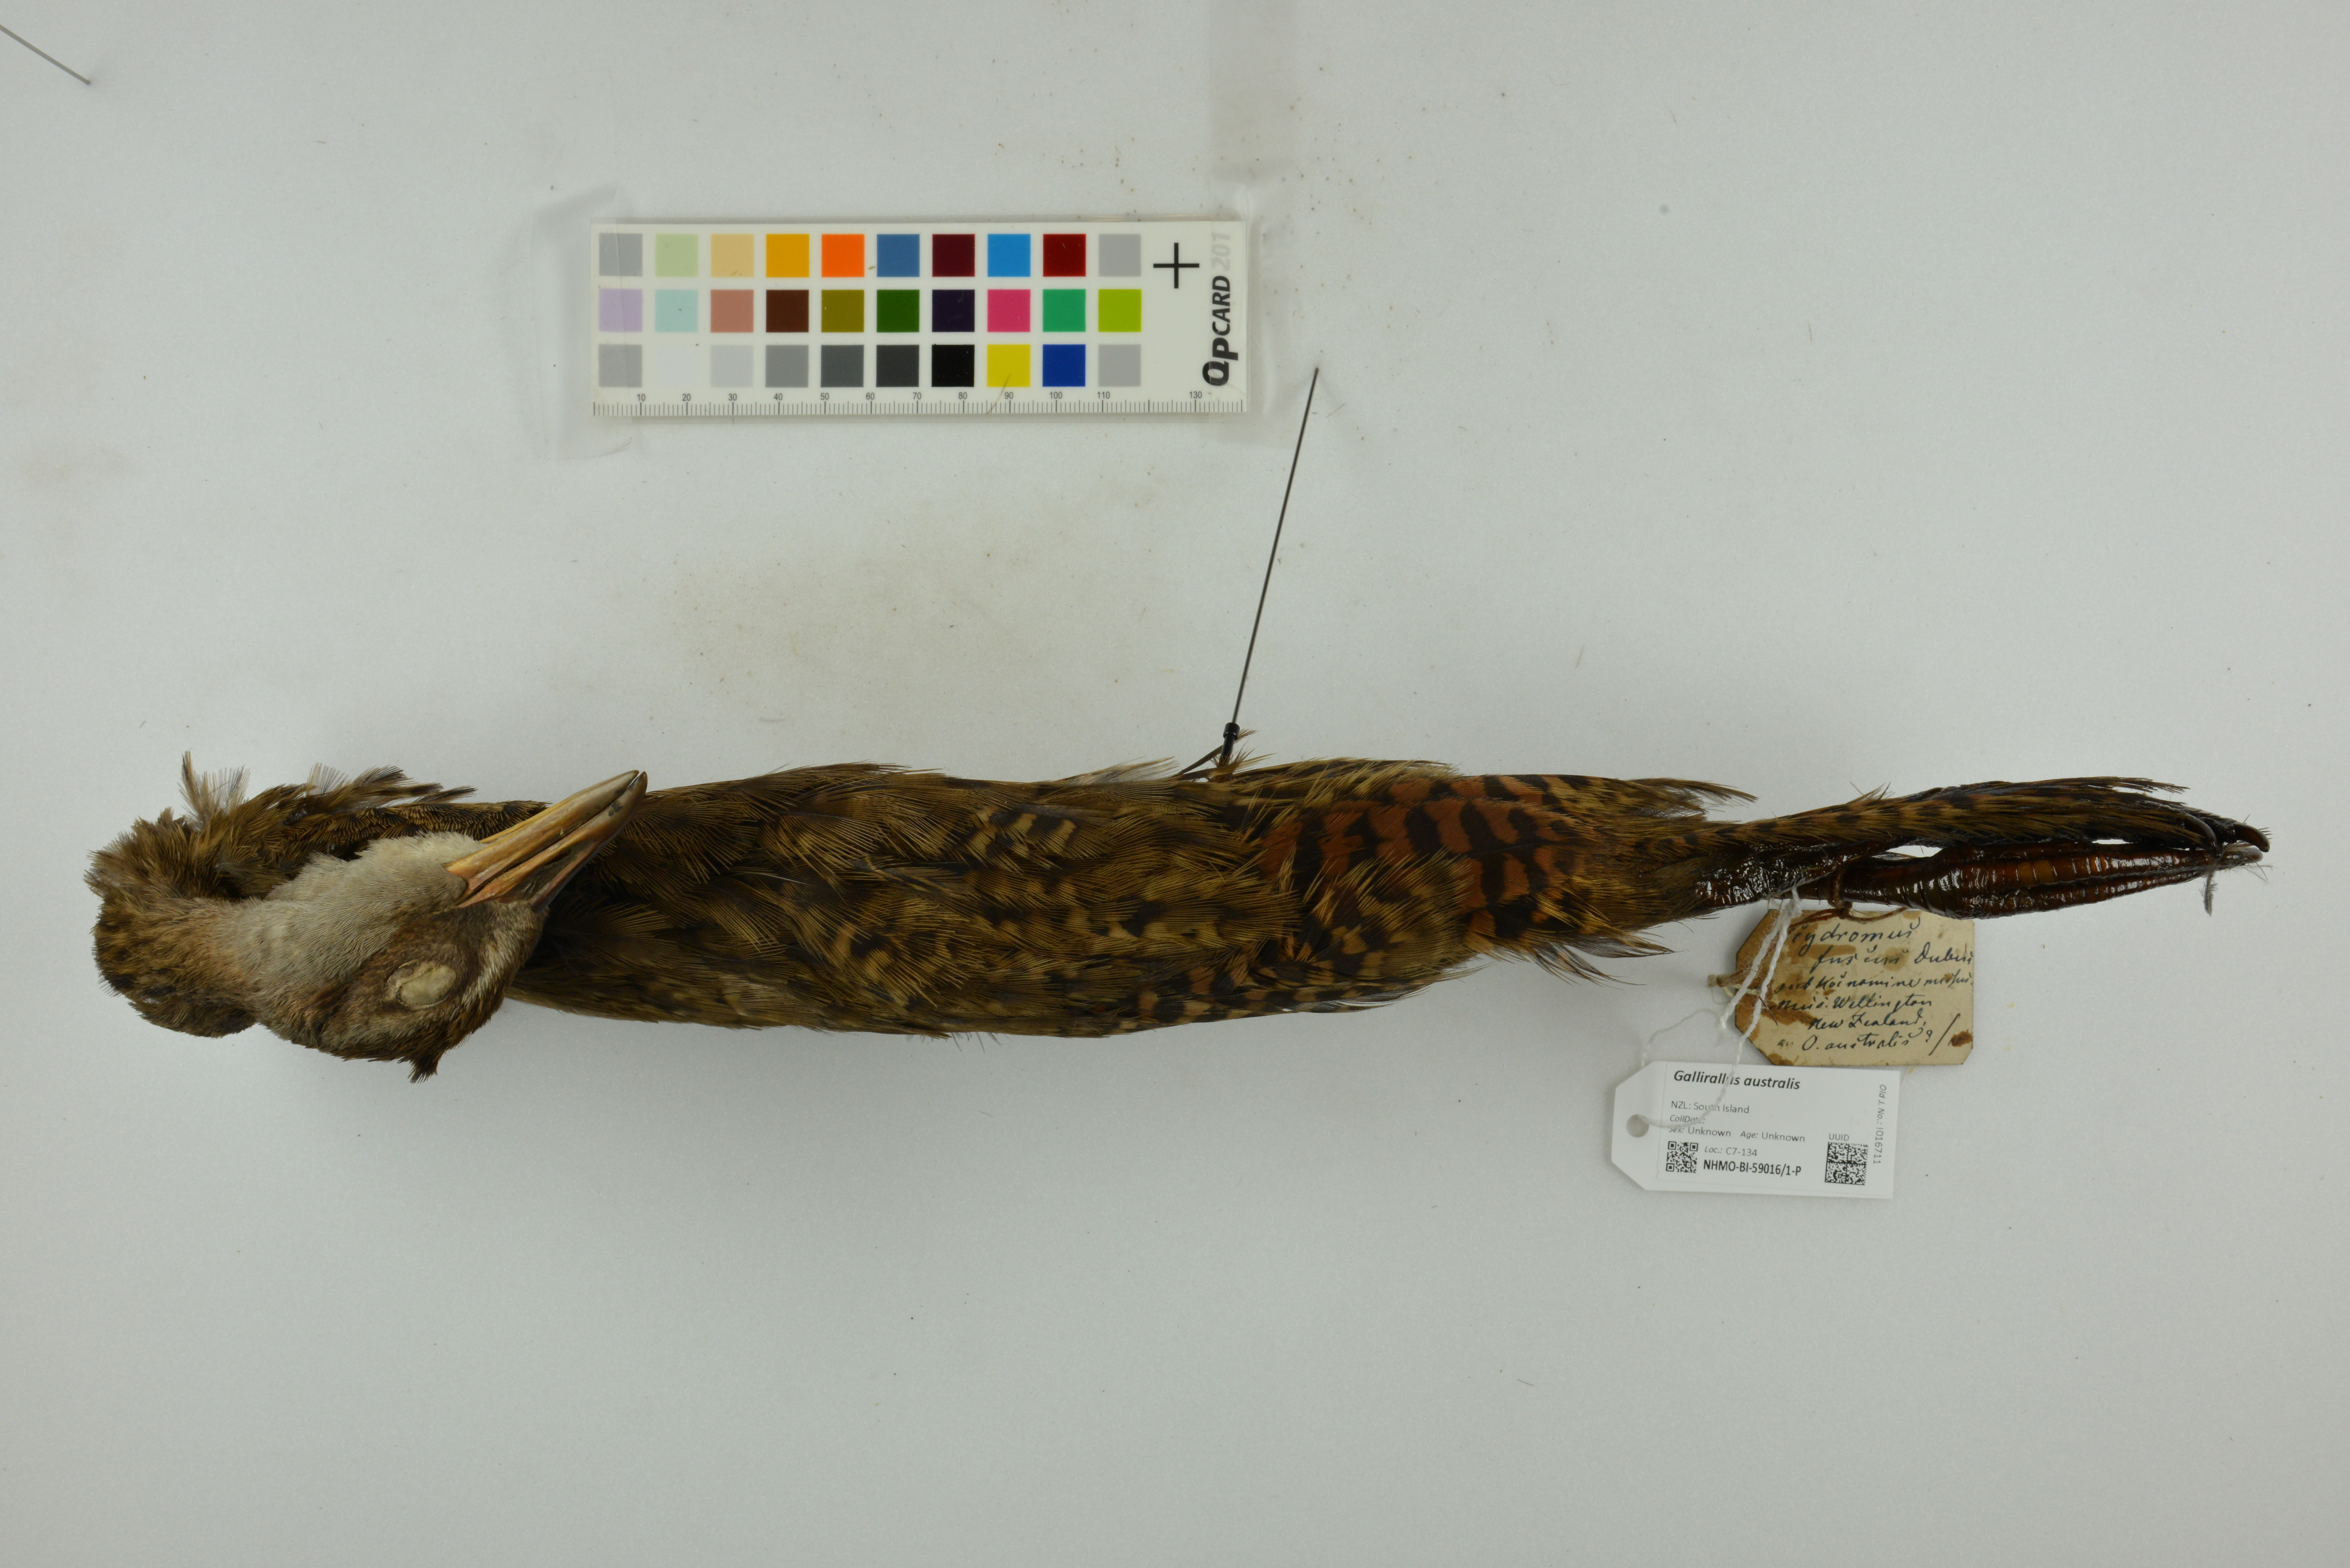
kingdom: Animalia
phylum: Chordata
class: Aves
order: Gruiformes
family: Rallidae
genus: Gallirallus
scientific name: Gallirallus australis
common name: Weka
